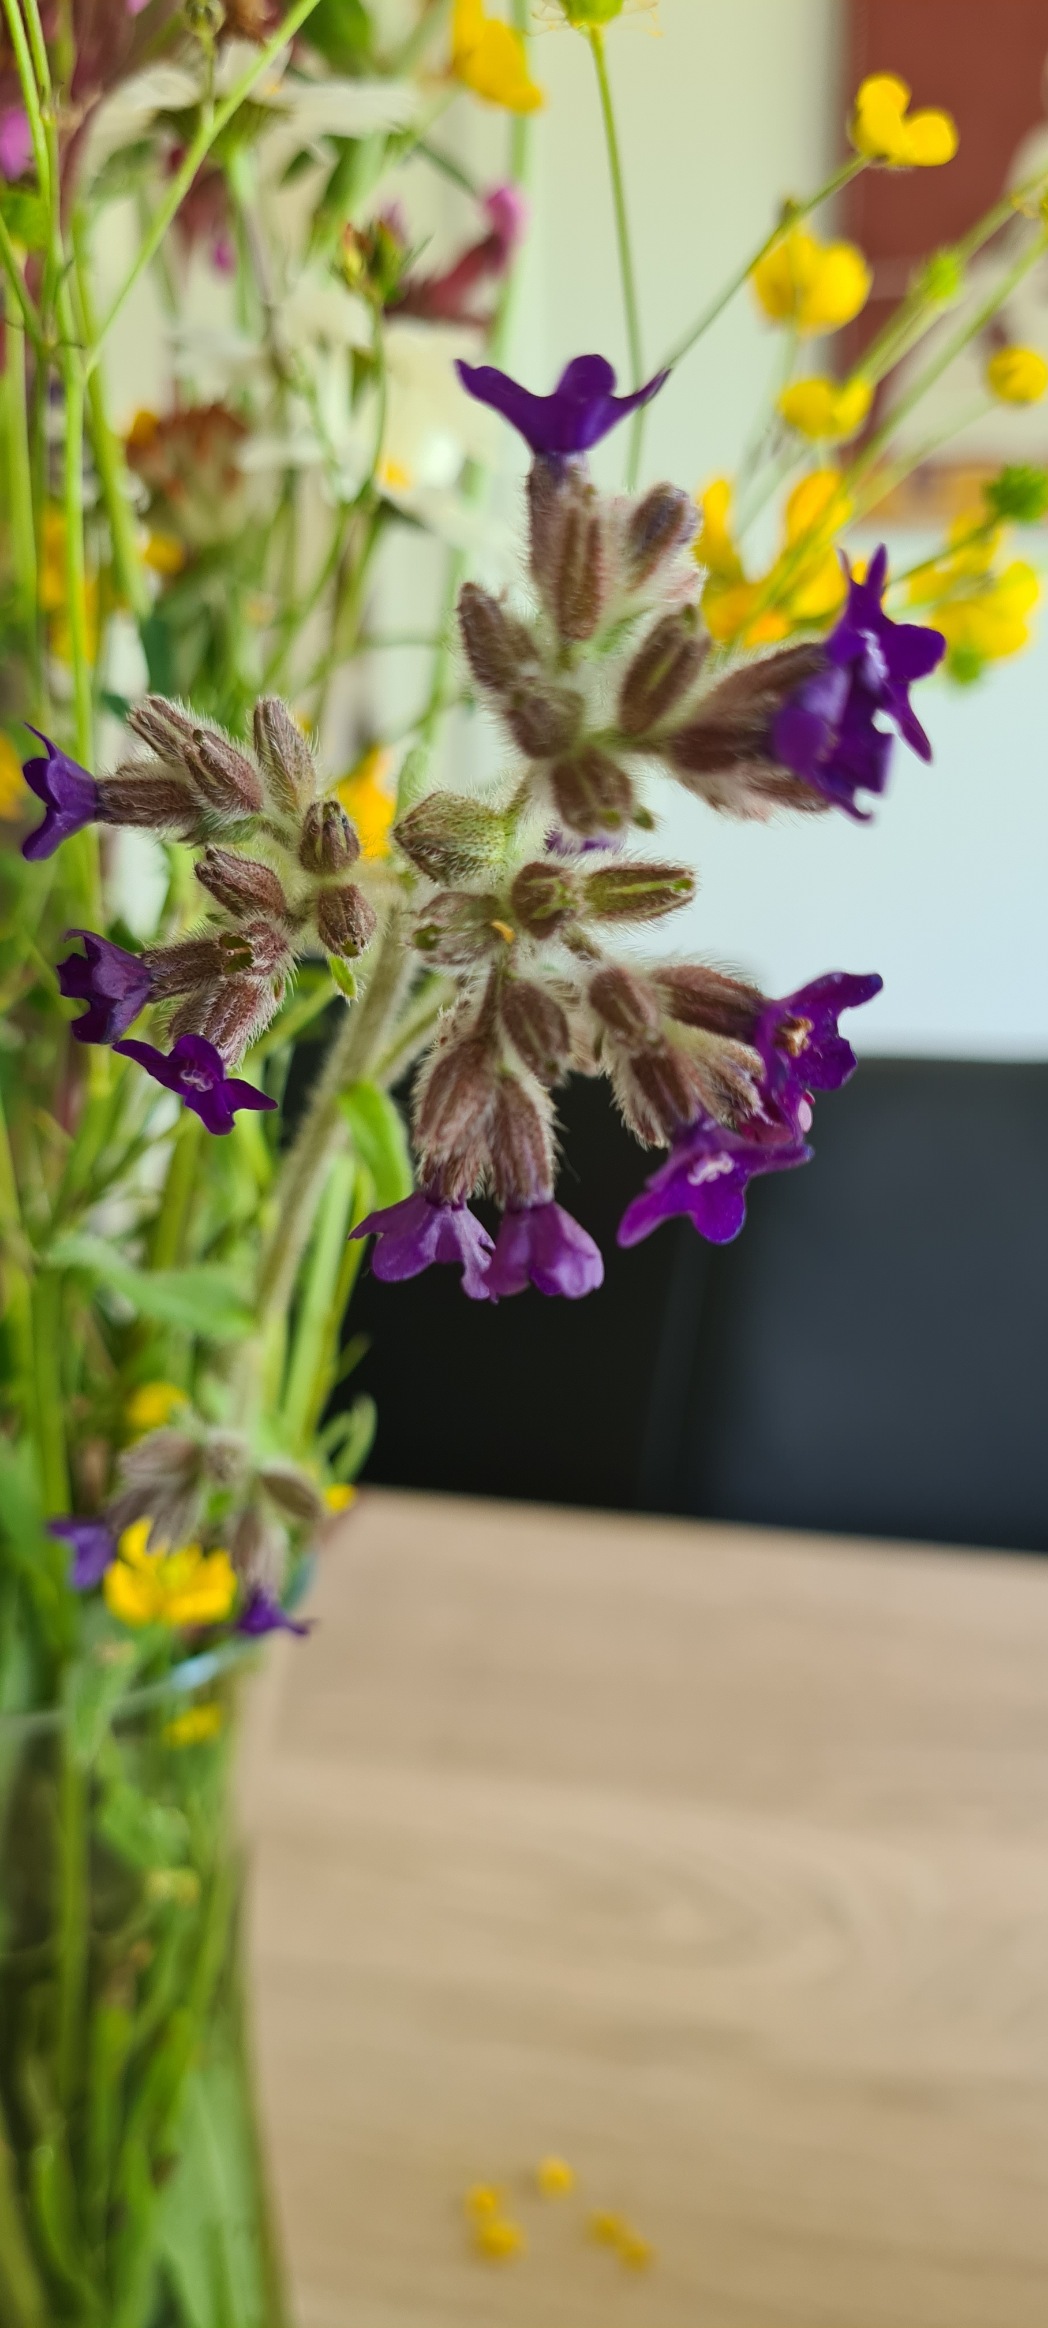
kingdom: Plantae
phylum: Tracheophyta
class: Magnoliopsida
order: Boraginales
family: Boraginaceae
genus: Anchusa
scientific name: Anchusa officinalis
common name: Læge-oksetunge
